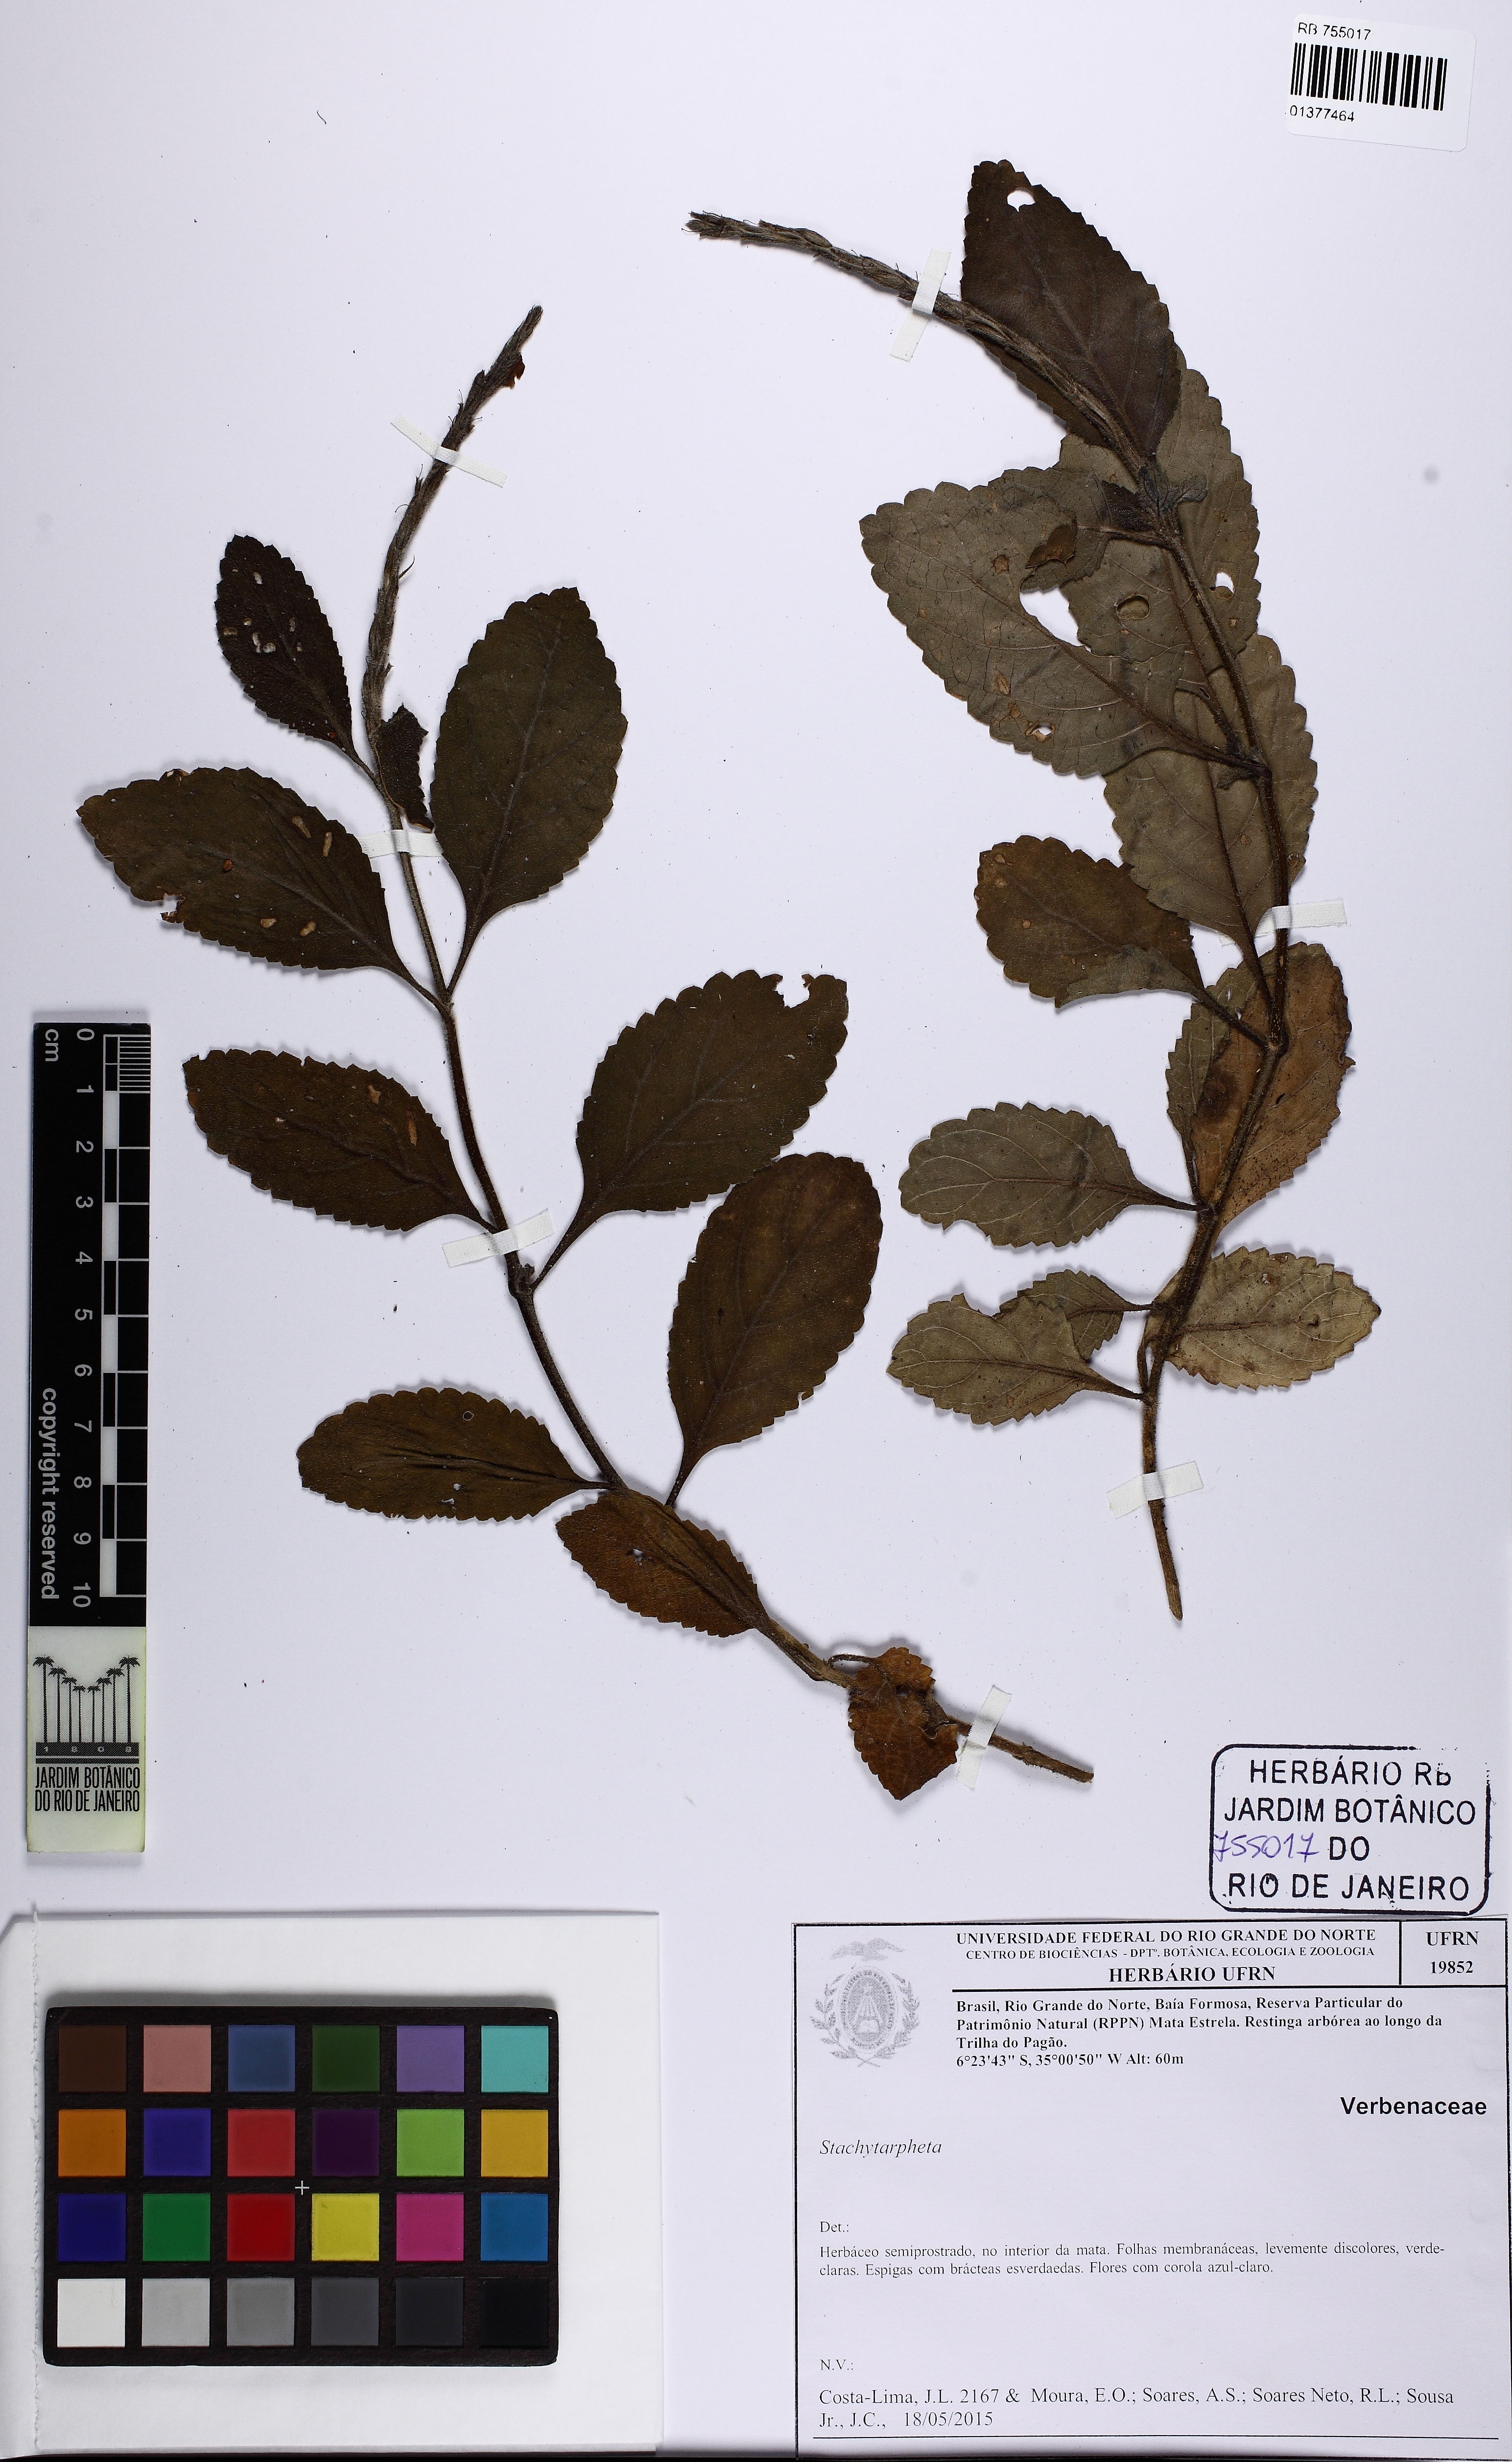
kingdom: Plantae
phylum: Tracheophyta
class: Magnoliopsida
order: Lamiales
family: Verbenaceae
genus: Stachytarpheta
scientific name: Stachytarpheta
